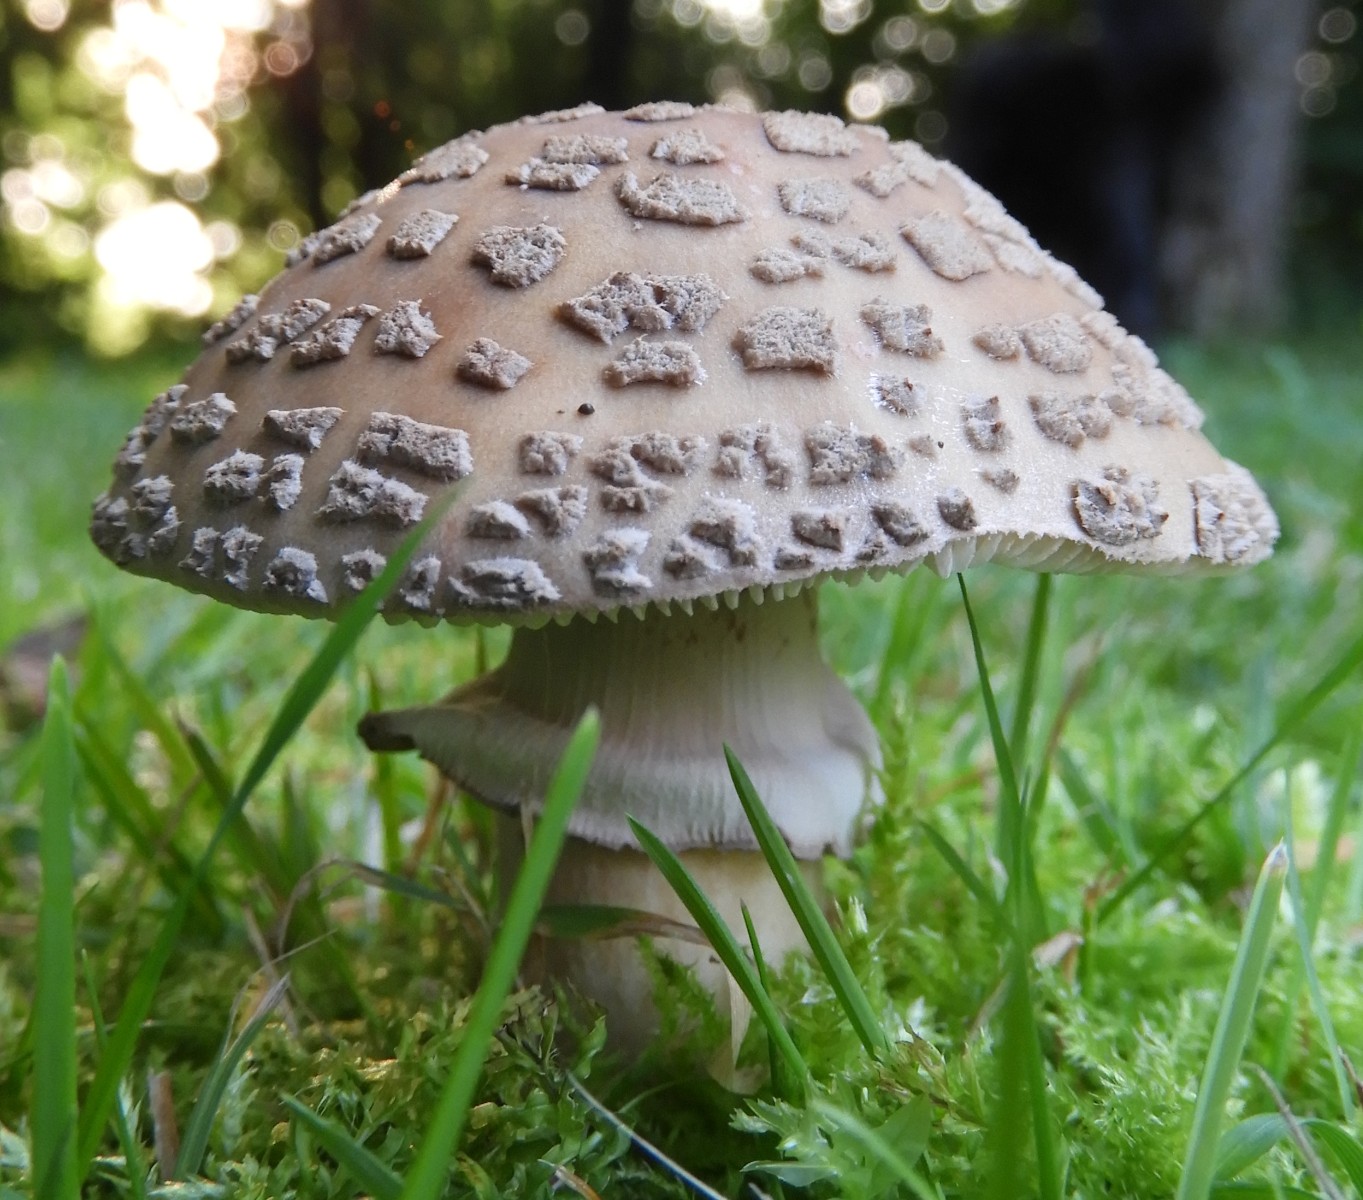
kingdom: Fungi
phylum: Basidiomycota
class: Agaricomycetes
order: Agaricales
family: Amanitaceae
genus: Amanita
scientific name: Amanita rubescens
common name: rødmende fluesvamp
